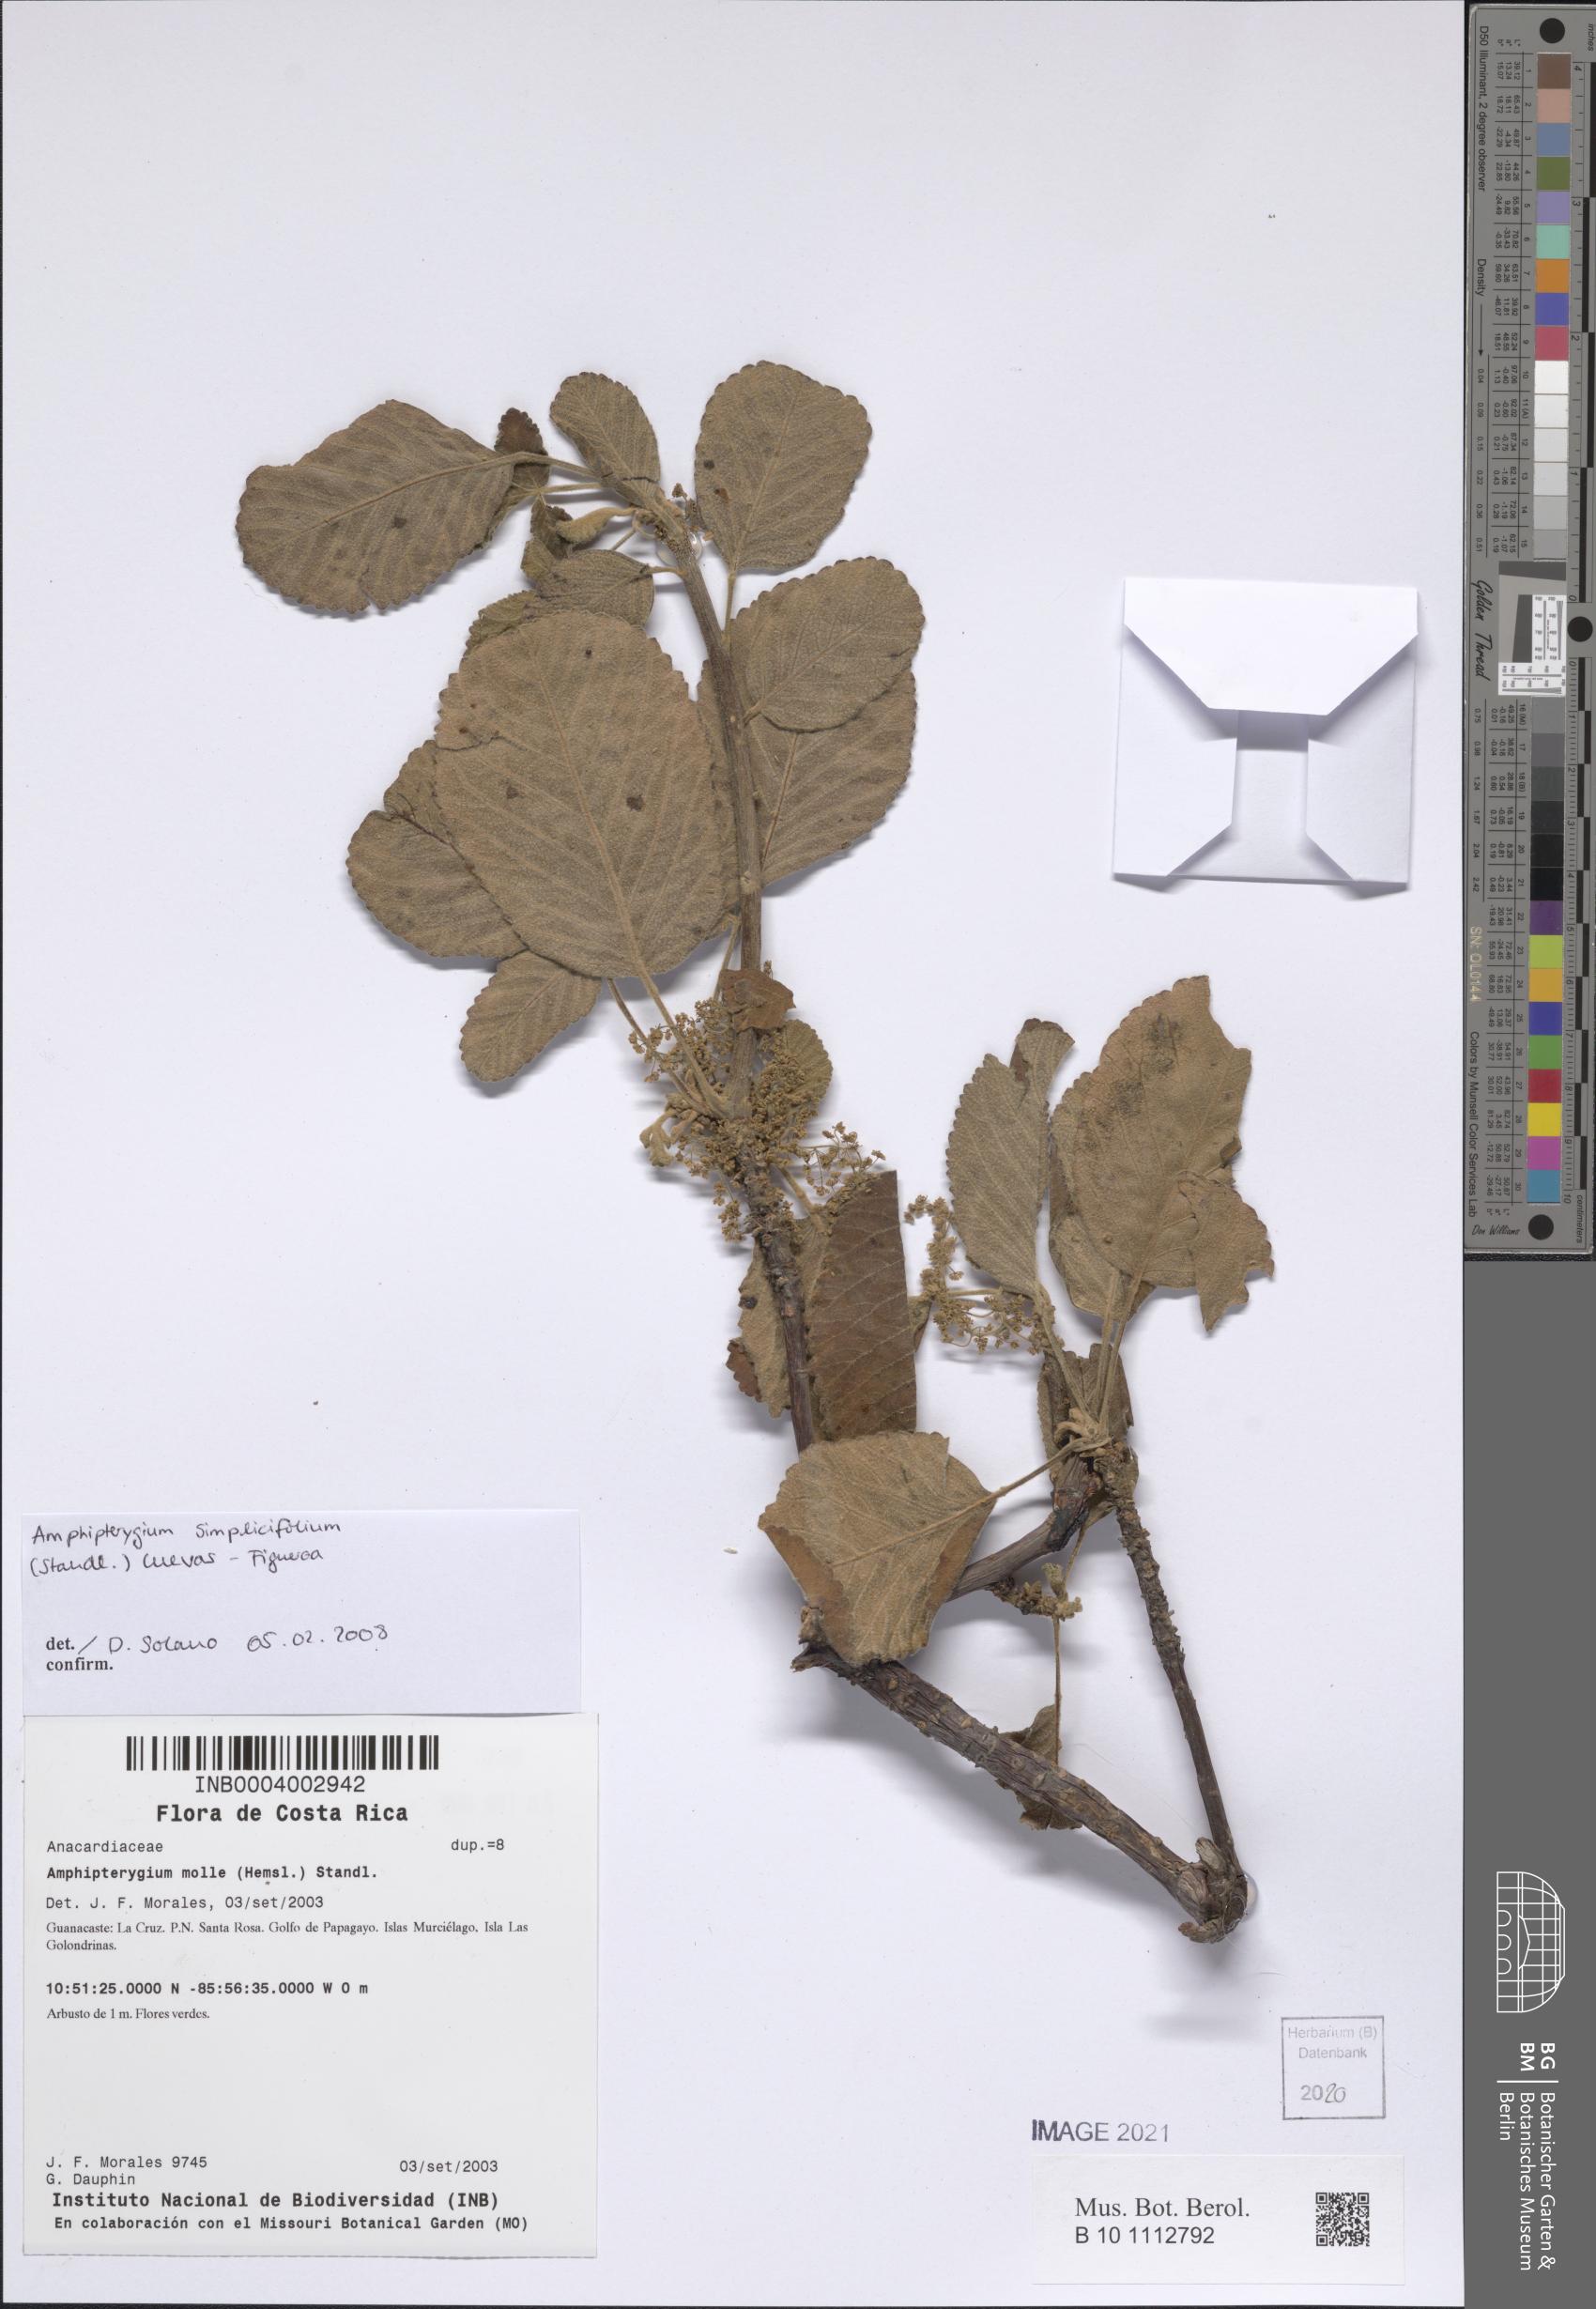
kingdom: Plantae
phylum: Tracheophyta
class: Magnoliopsida
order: Sapindales
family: Anacardiaceae
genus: Amphipterygium
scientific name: Amphipterygium simplicifolium
